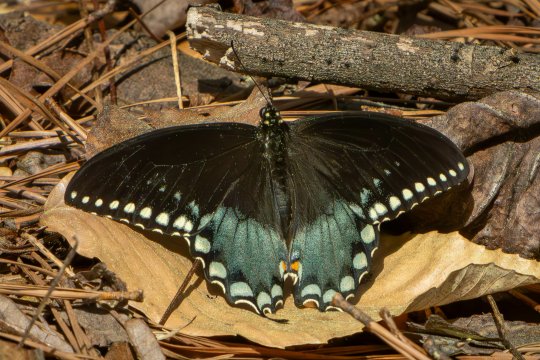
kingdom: Animalia
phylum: Arthropoda
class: Insecta
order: Lepidoptera
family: Papilionidae
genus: Pterourus
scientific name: Pterourus troilus
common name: Spicebush Swallowtail
